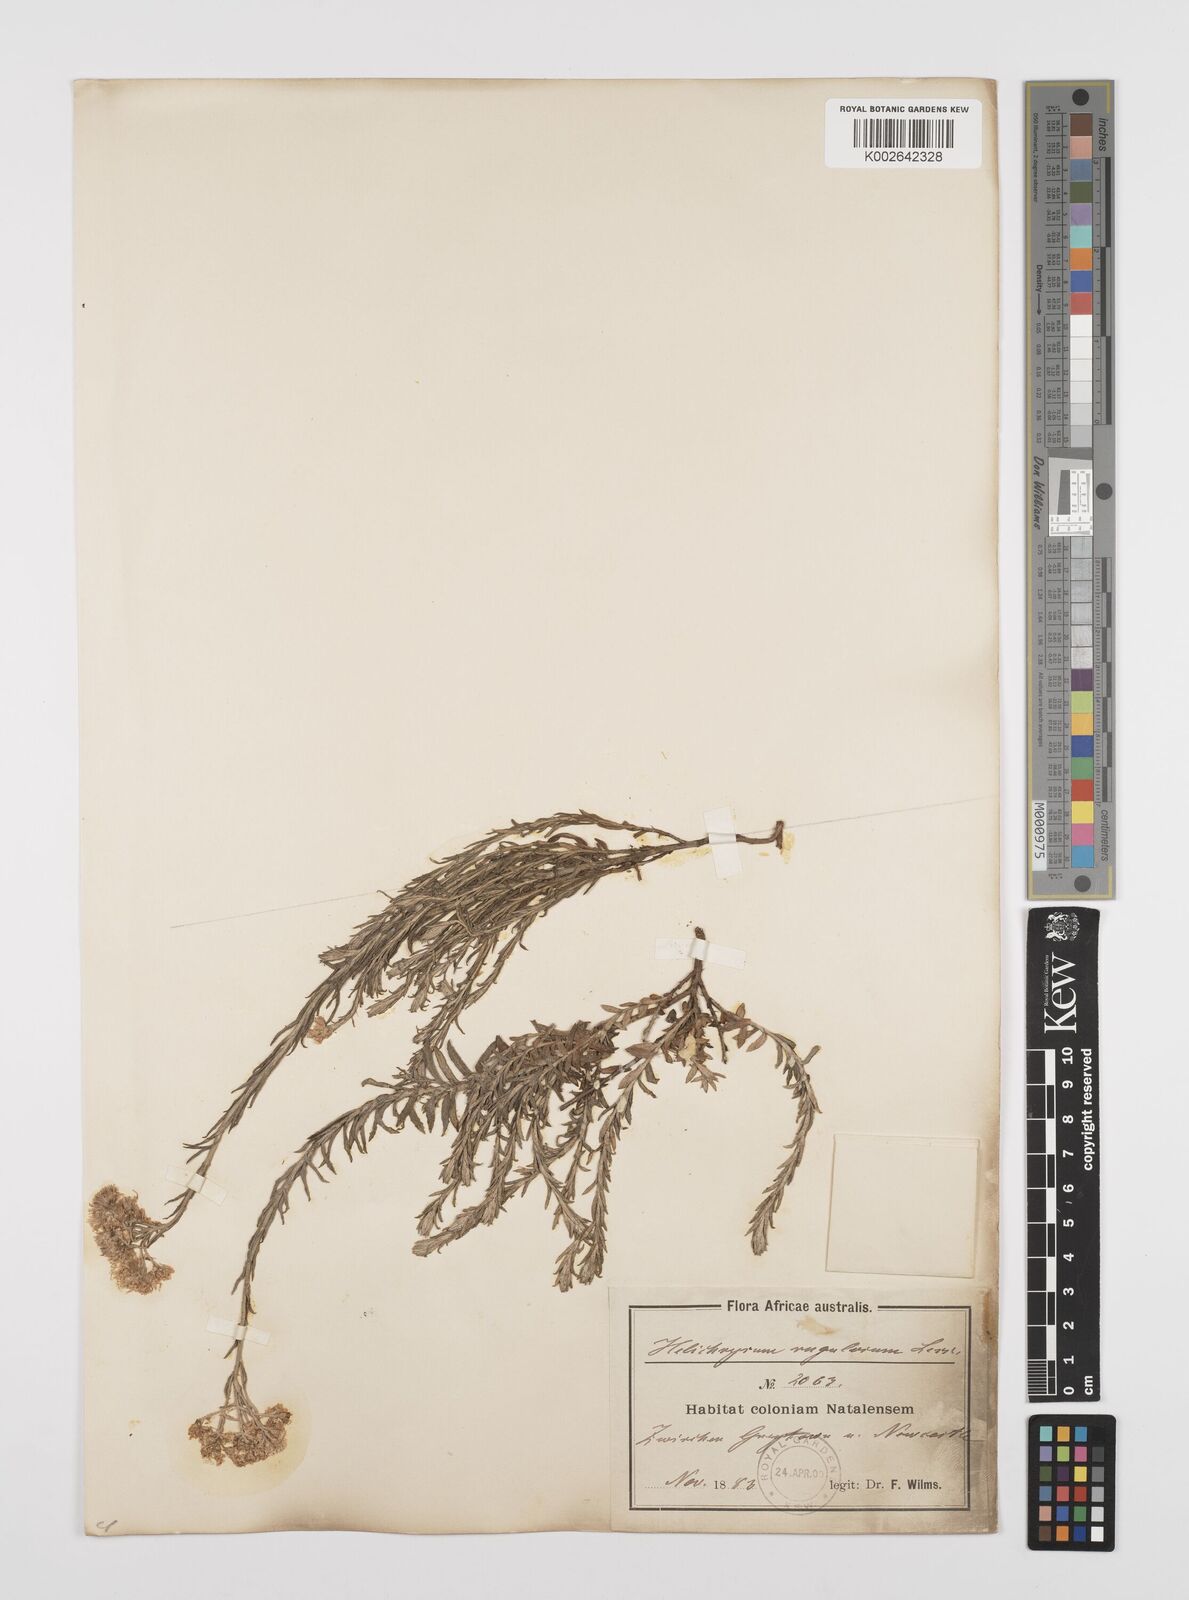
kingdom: Plantae
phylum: Tracheophyta
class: Magnoliopsida
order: Asterales
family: Asteraceae
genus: Helichrysum
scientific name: Helichrysum rugulosum
